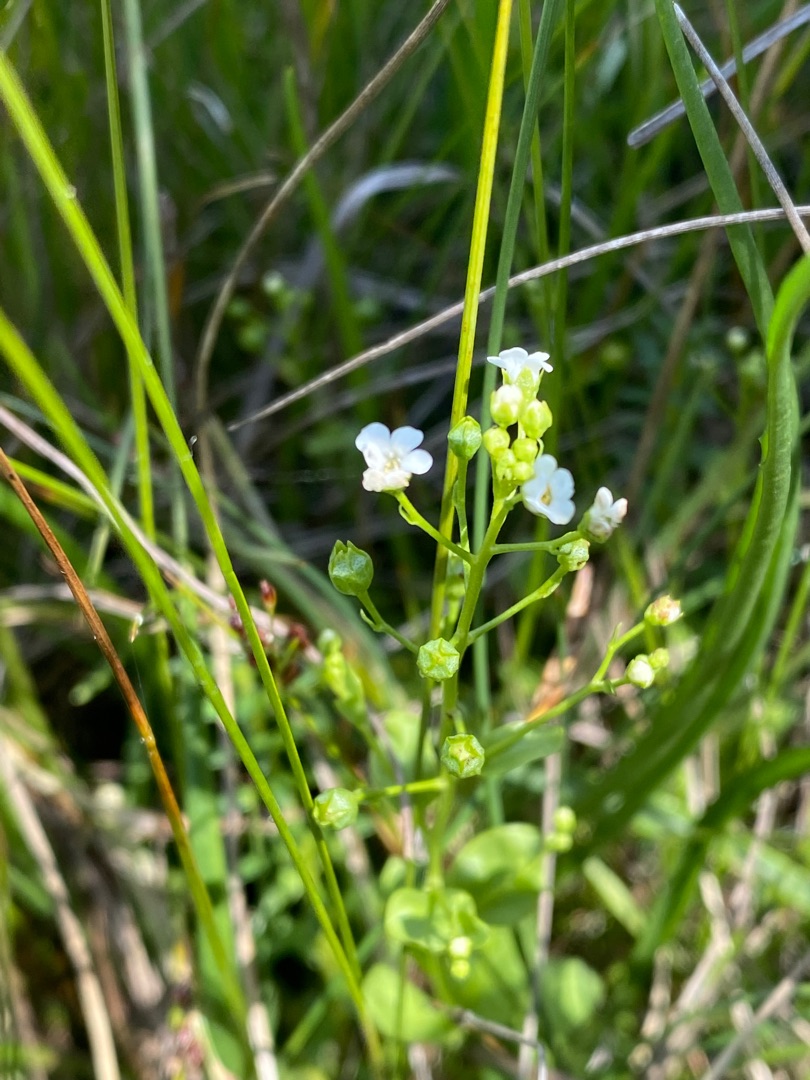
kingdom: Plantae
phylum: Tracheophyta
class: Magnoliopsida
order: Ericales
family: Primulaceae
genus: Samolus
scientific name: Samolus valerandi
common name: Samel
